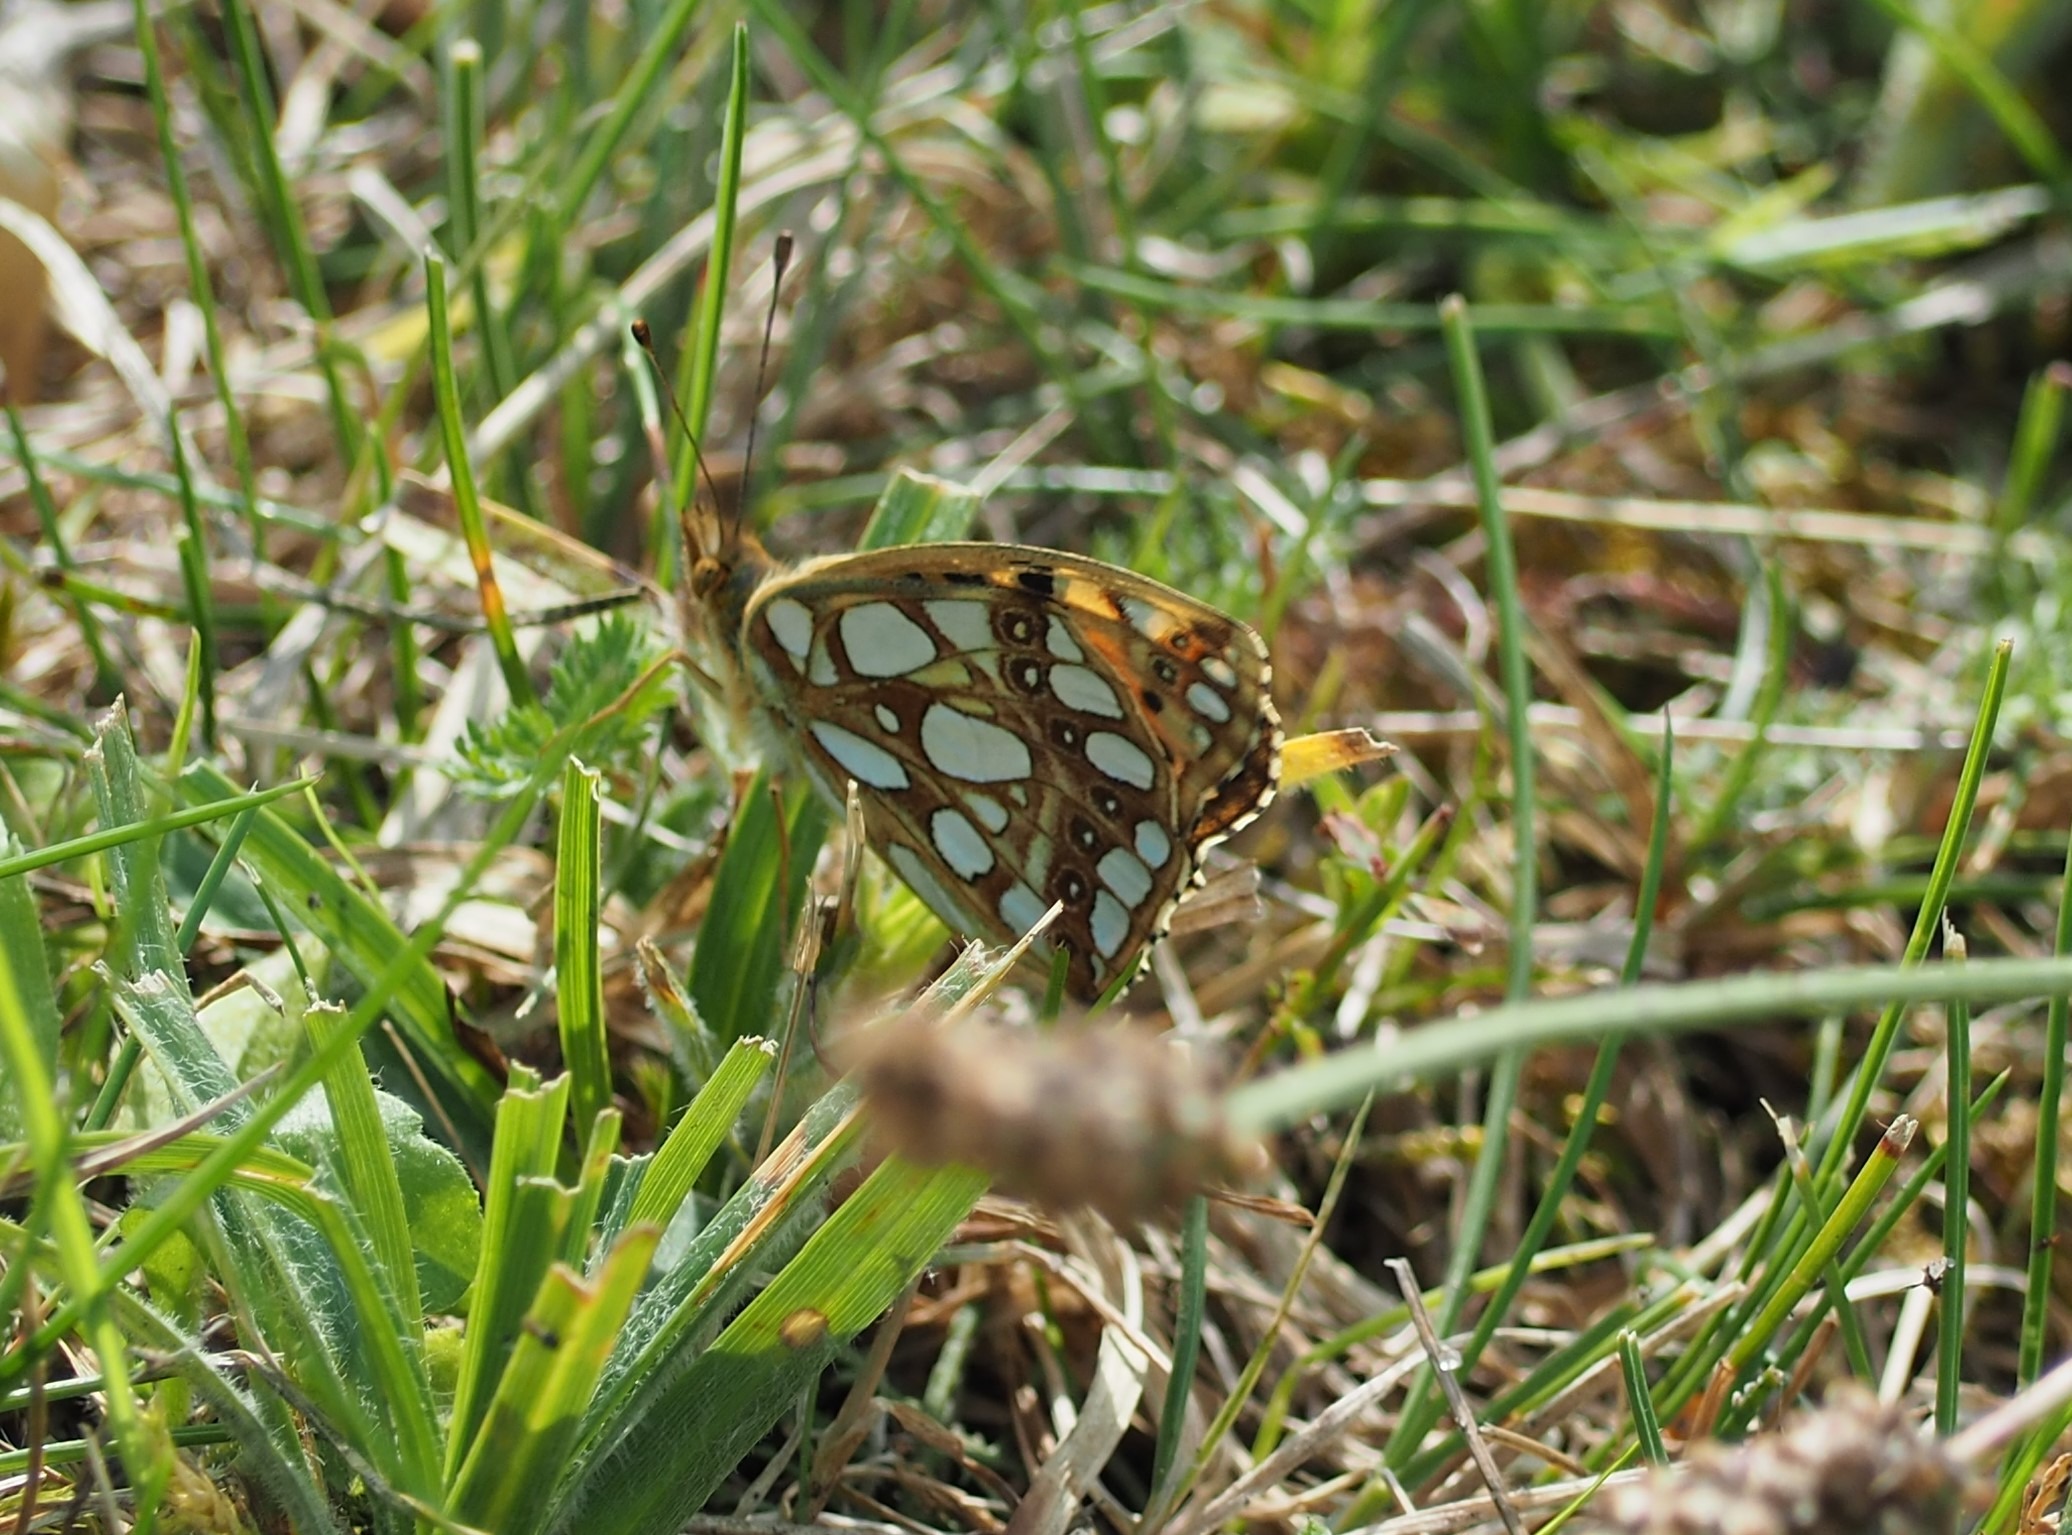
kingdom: Animalia
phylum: Arthropoda
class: Insecta
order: Lepidoptera
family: Nymphalidae
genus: Issoria
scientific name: Issoria lathonia
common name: Storplettet perlemorsommerfugl
